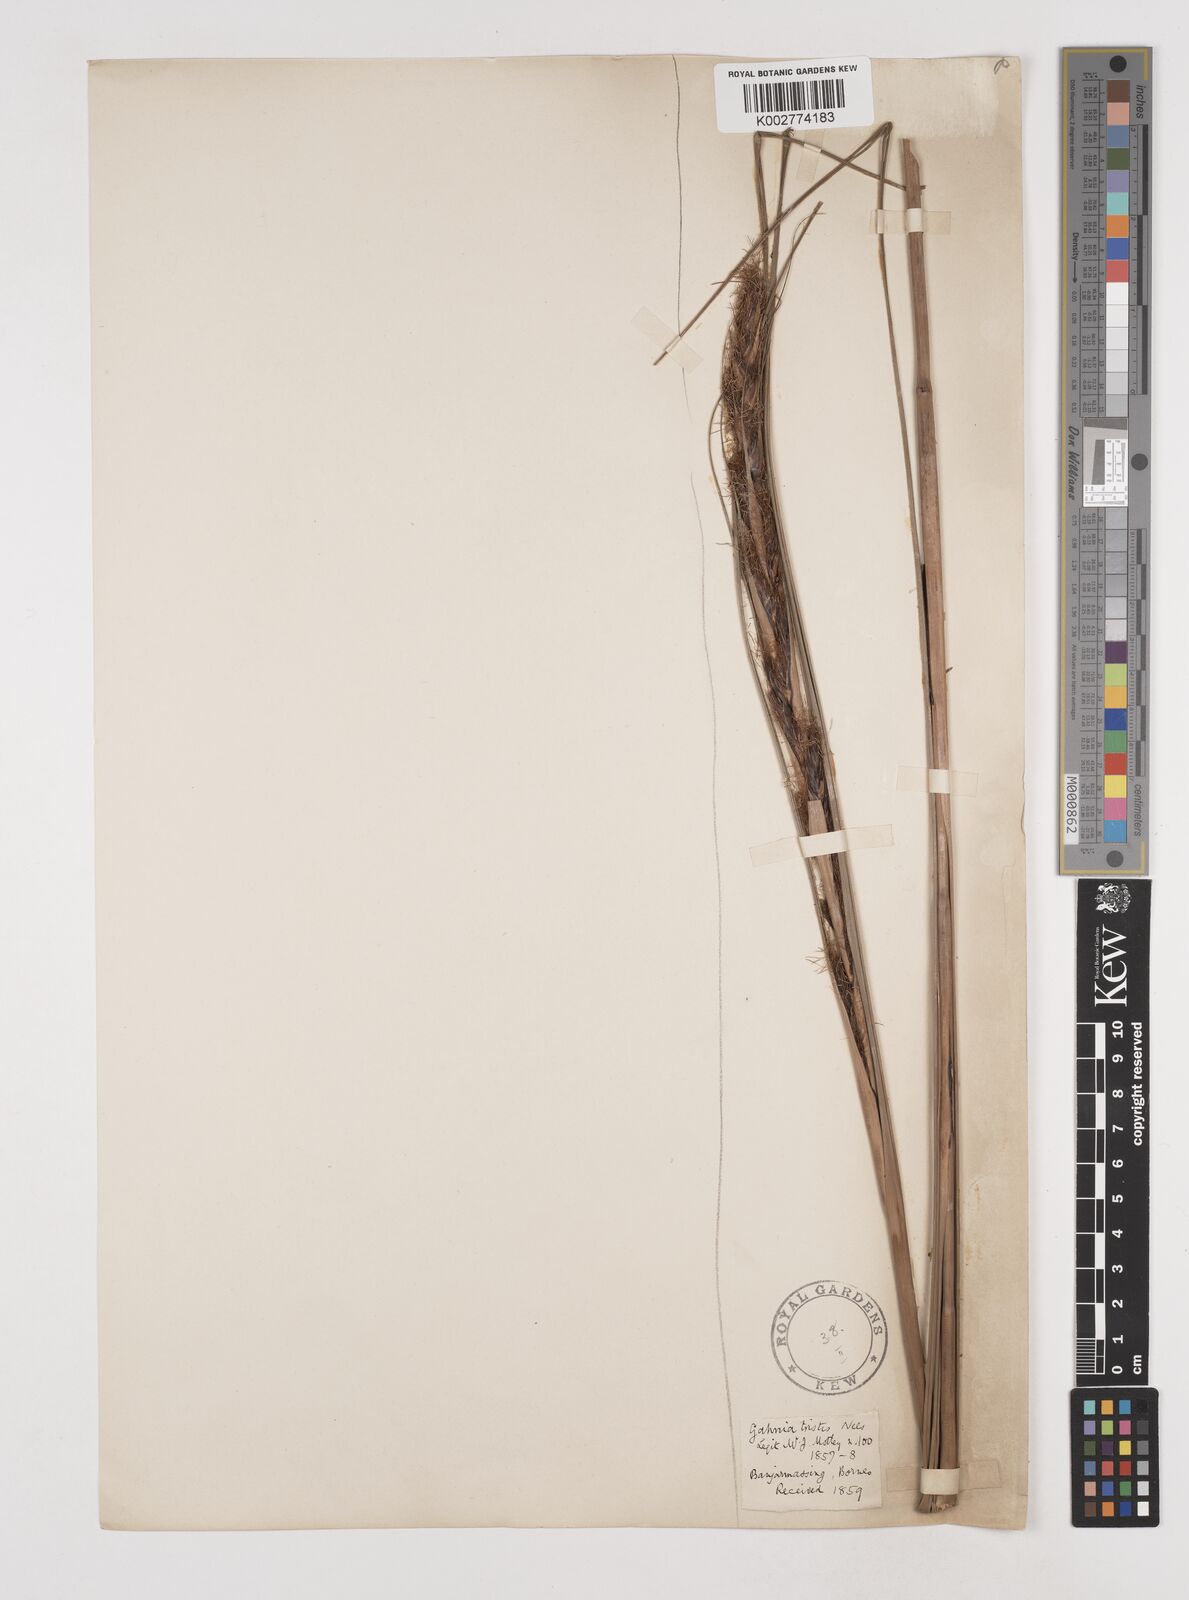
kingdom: Plantae
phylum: Tracheophyta
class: Liliopsida
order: Poales
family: Cyperaceae
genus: Gahnia
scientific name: Gahnia tristis
